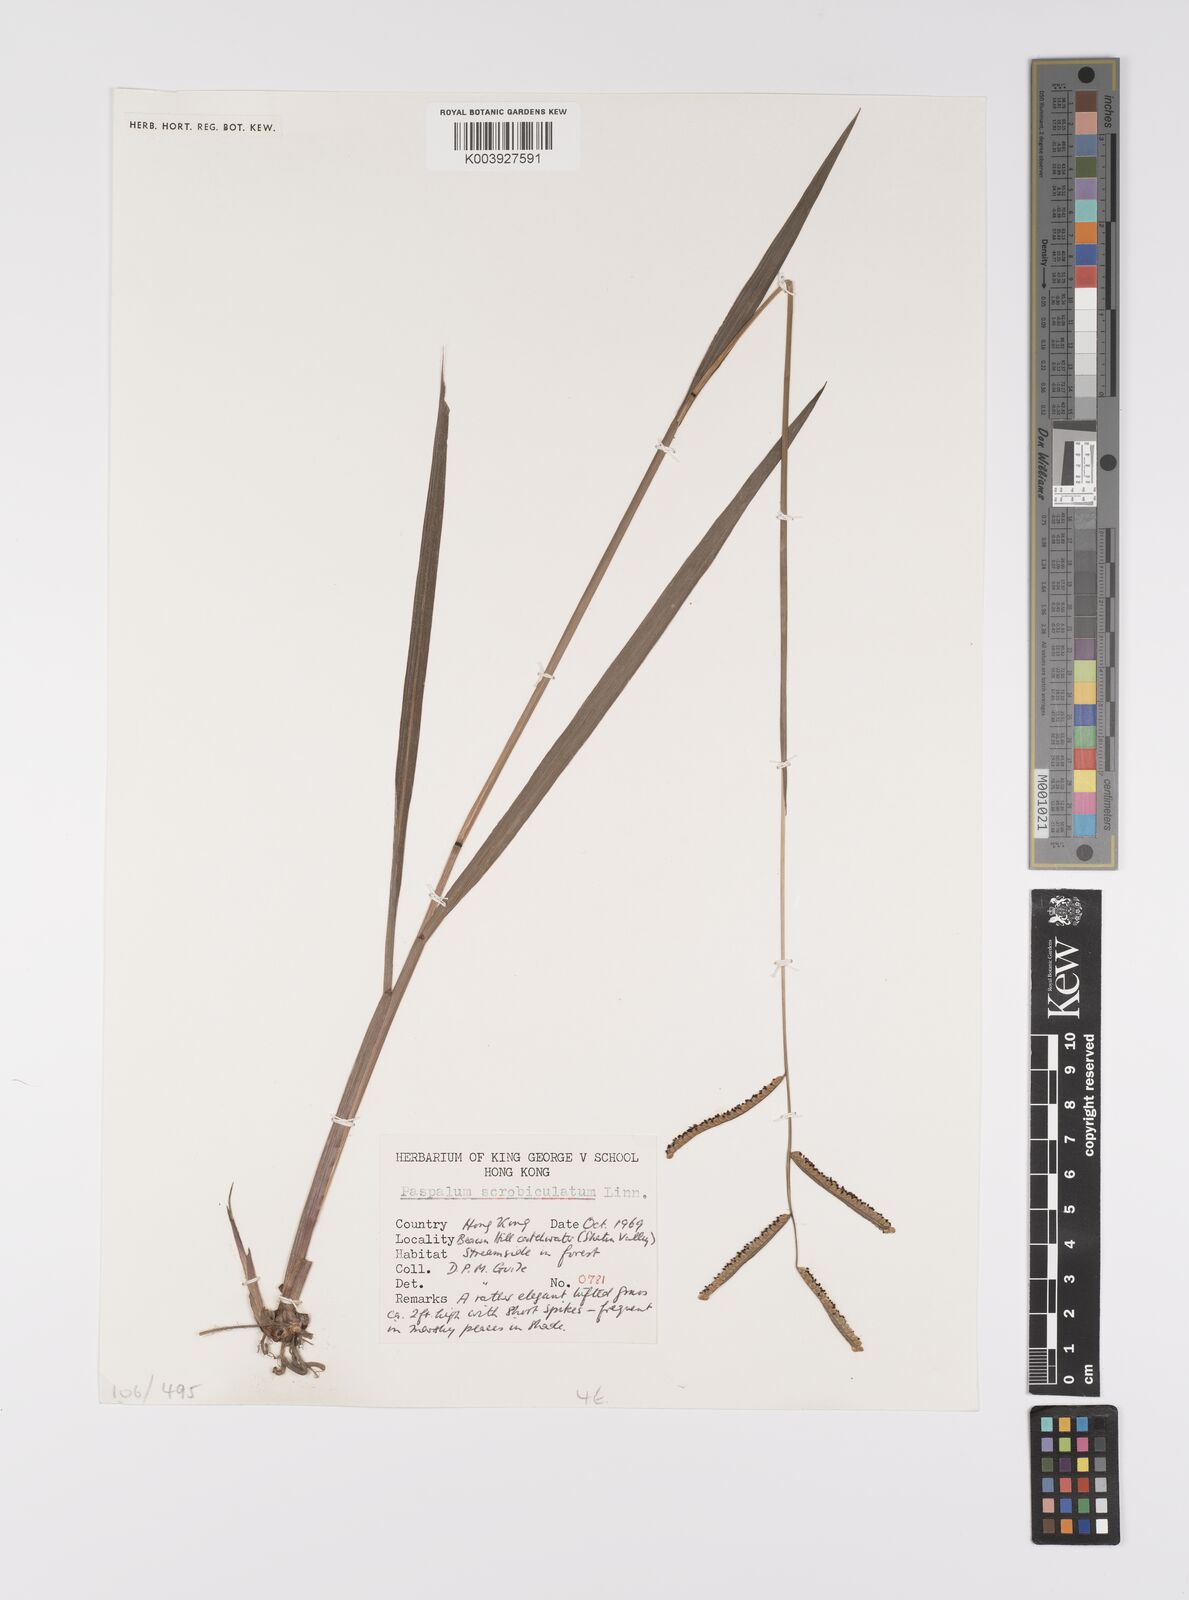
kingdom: Plantae
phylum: Tracheophyta
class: Liliopsida
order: Poales
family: Poaceae
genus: Paspalum
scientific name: Paspalum scrobiculatum
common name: Kodo millet
